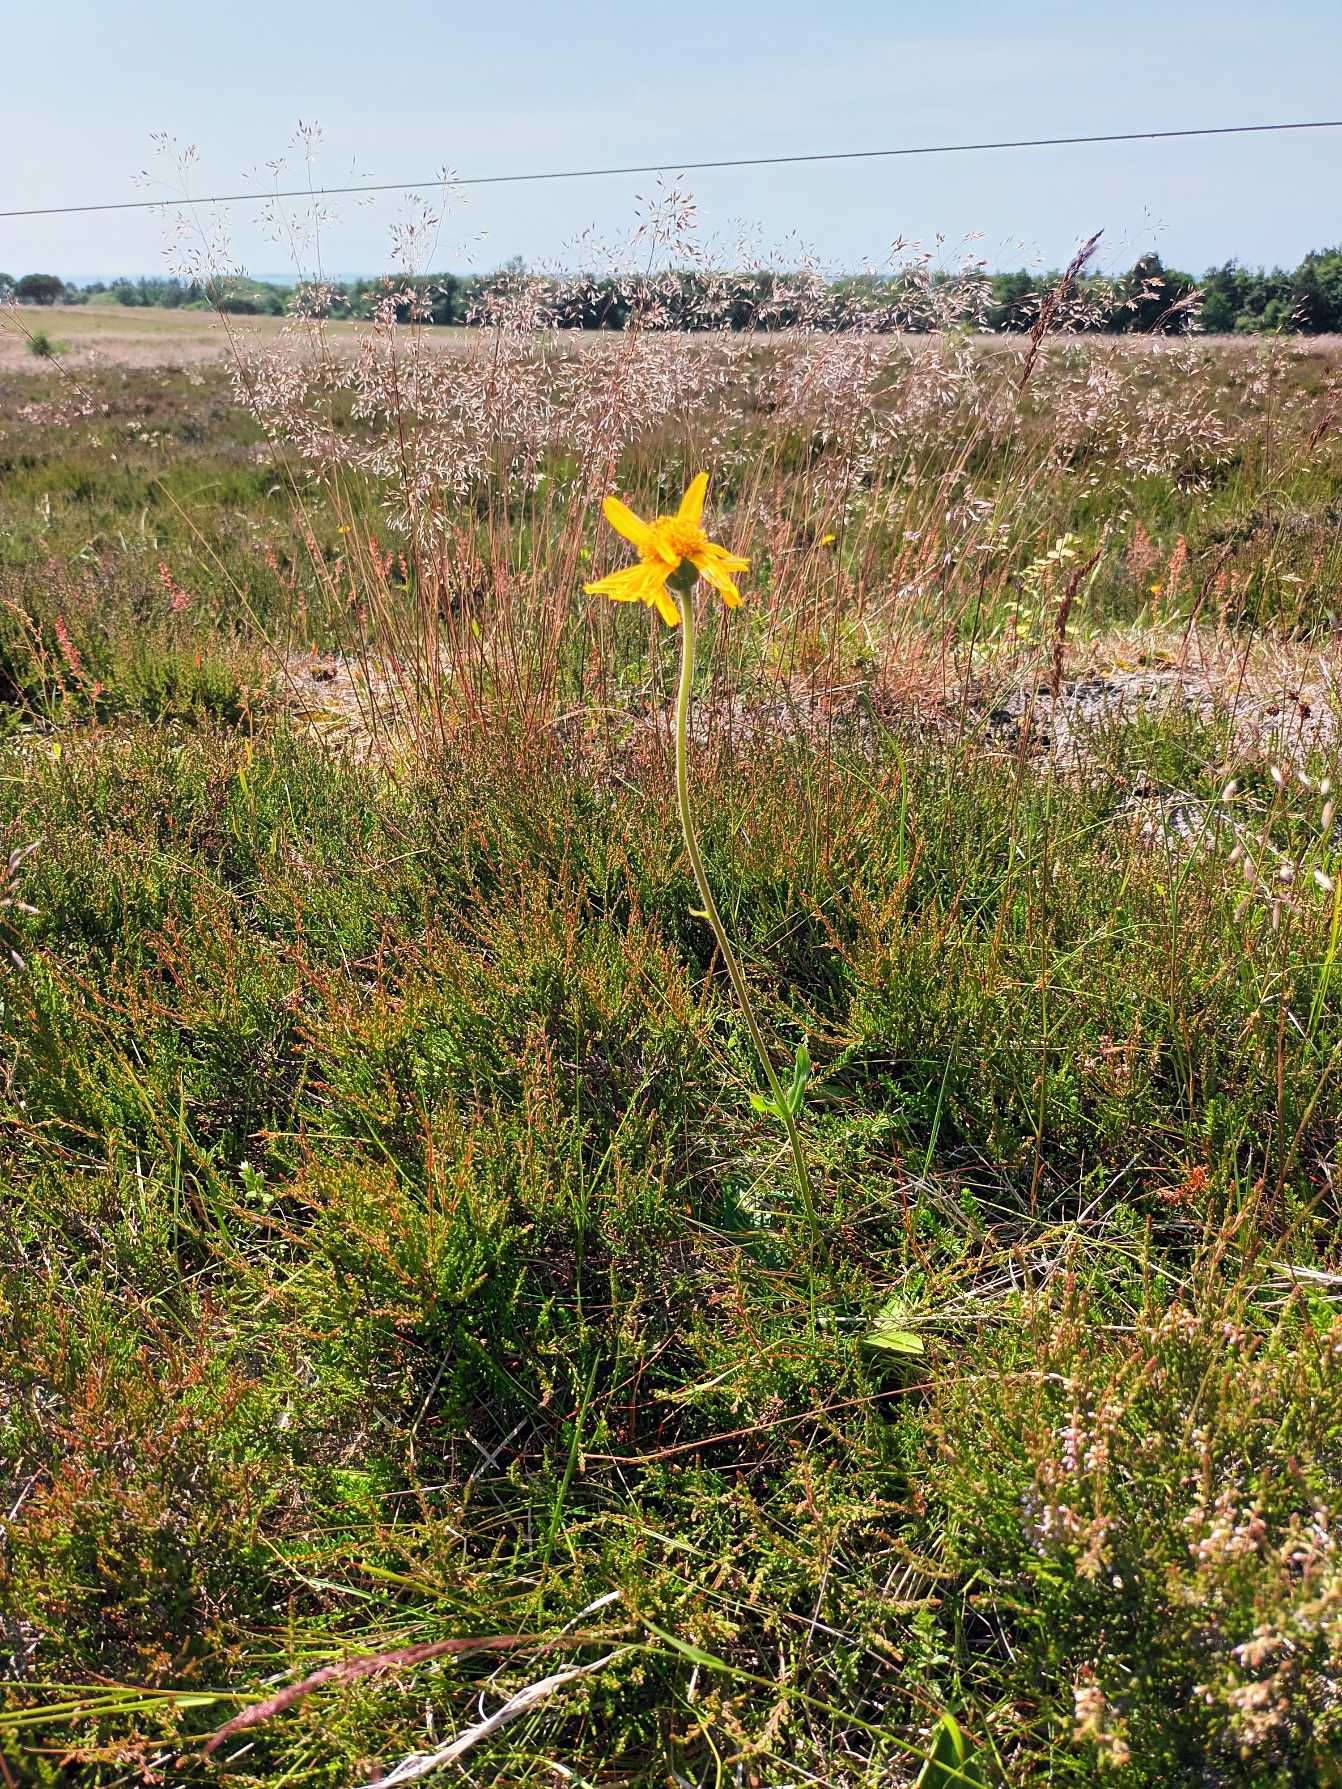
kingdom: Plantae
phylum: Tracheophyta
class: Magnoliopsida
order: Asterales
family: Asteraceae
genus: Arnica
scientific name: Arnica montana
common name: Guldblomme
